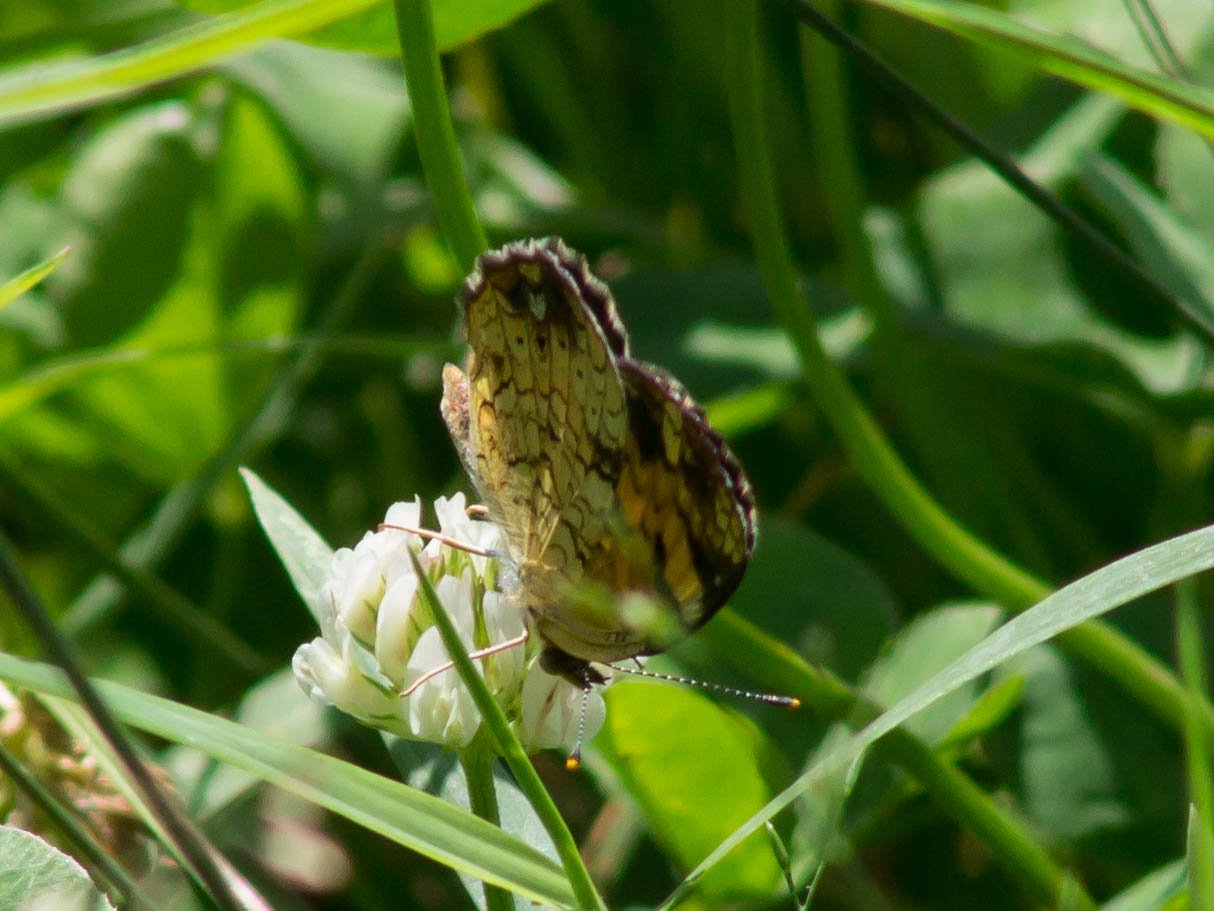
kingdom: Animalia
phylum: Arthropoda
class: Insecta
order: Lepidoptera
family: Nymphalidae
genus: Phyciodes
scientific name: Phyciodes tharos
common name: Pearl Crescent
